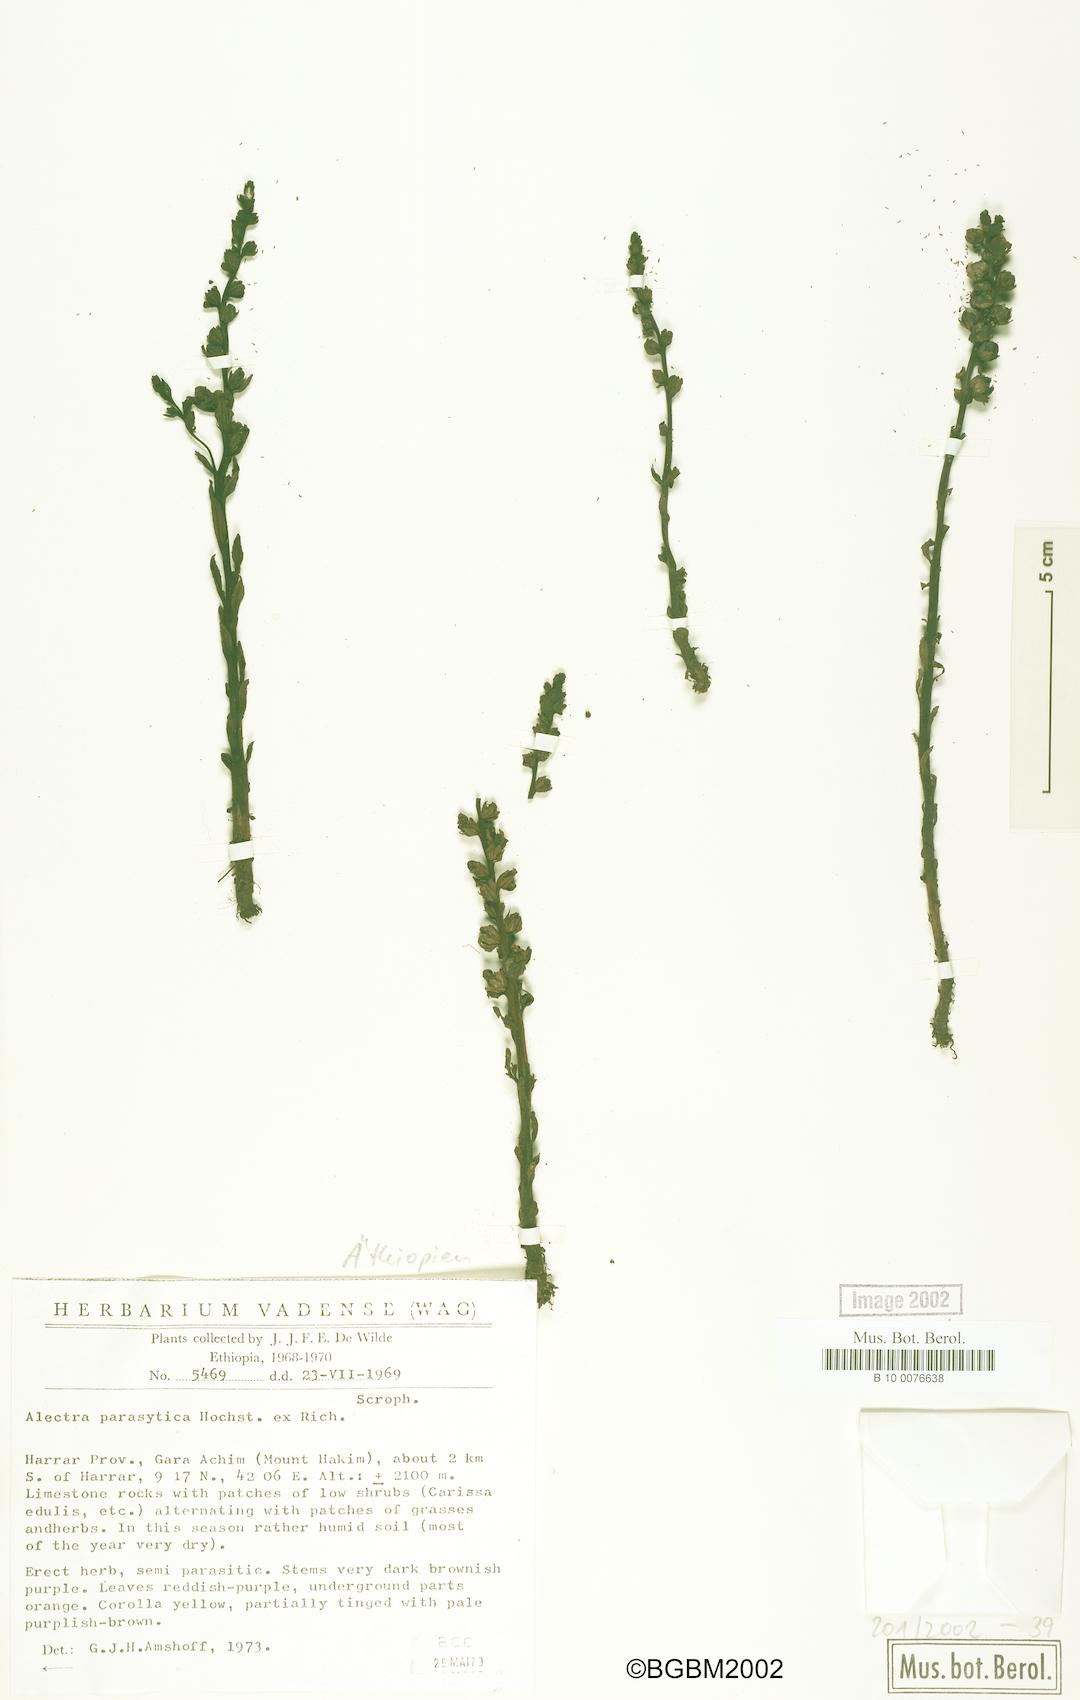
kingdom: Plantae
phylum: Tracheophyta
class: Magnoliopsida
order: Lamiales
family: Orobanchaceae
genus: Alectra
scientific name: Alectra parasitica
